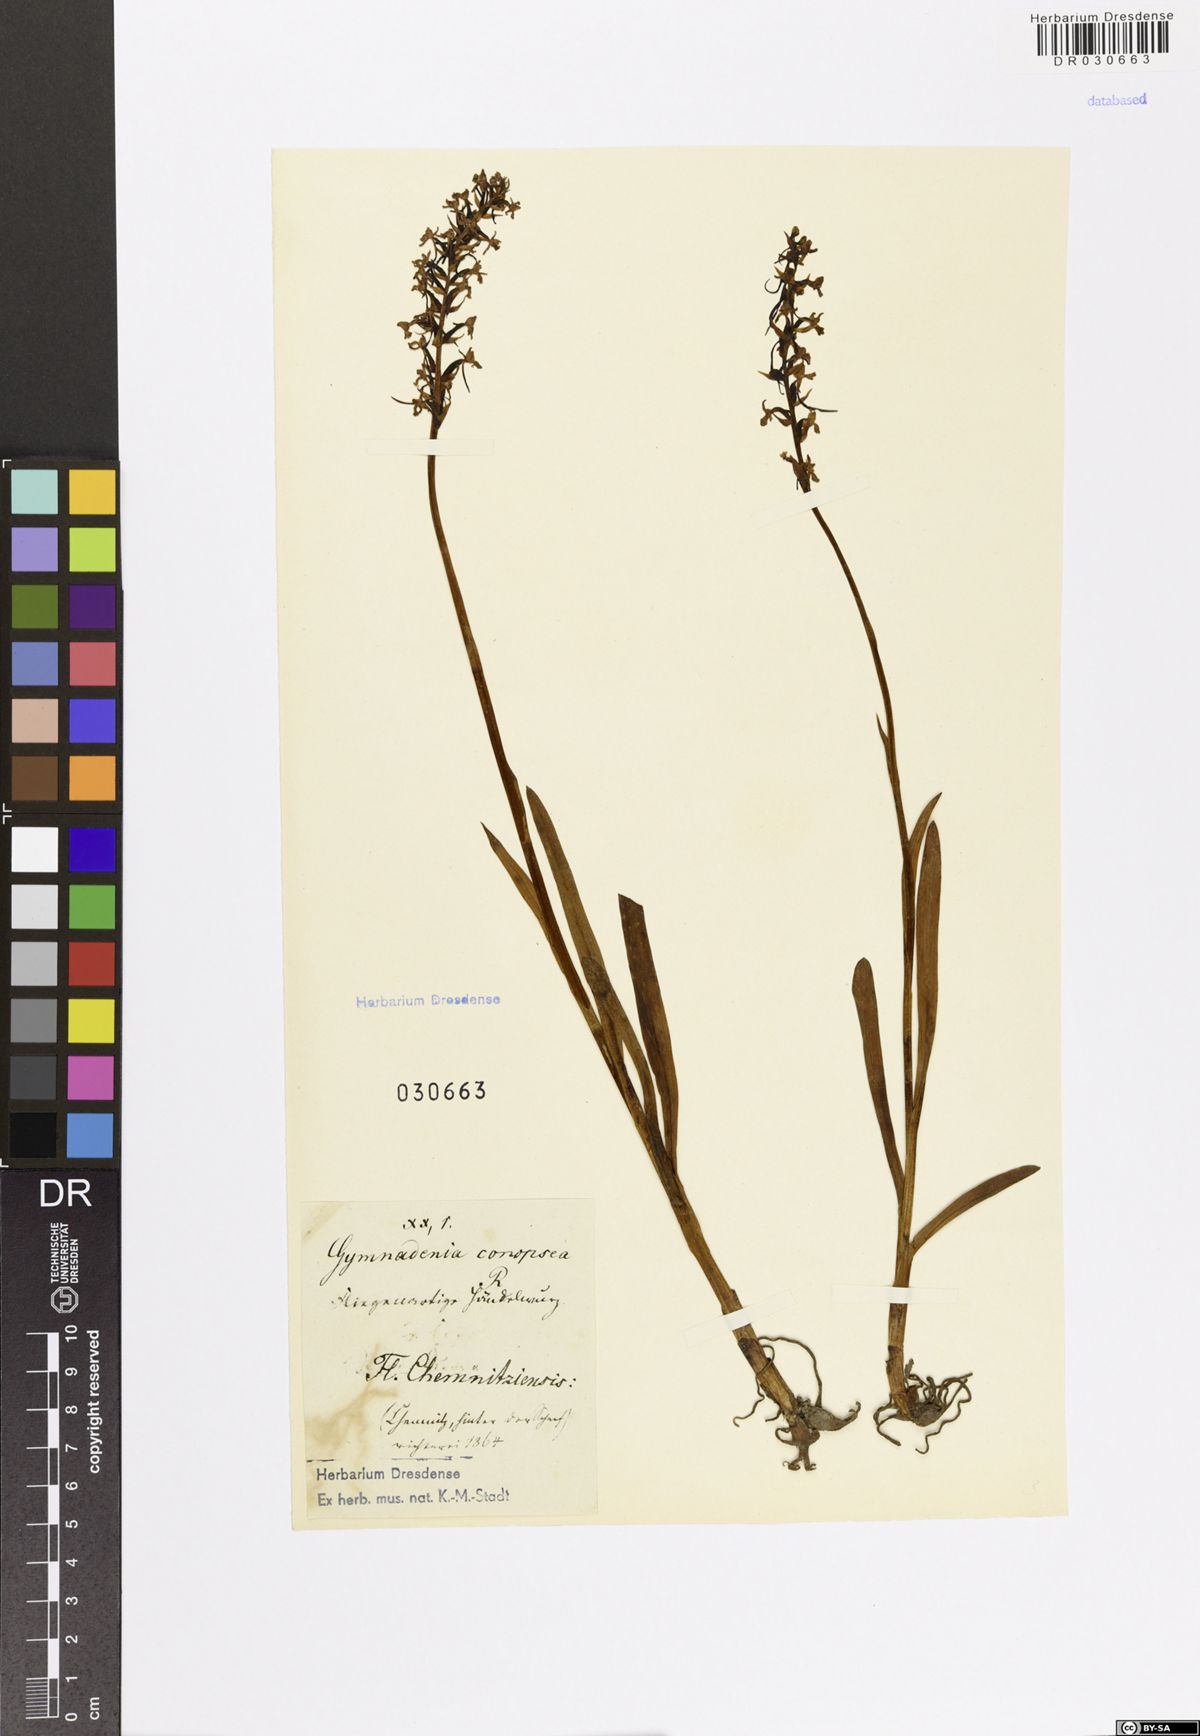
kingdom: Plantae
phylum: Tracheophyta
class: Liliopsida
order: Asparagales
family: Orchidaceae
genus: Gymnadenia
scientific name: Gymnadenia conopsea
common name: Fragrant orchid
